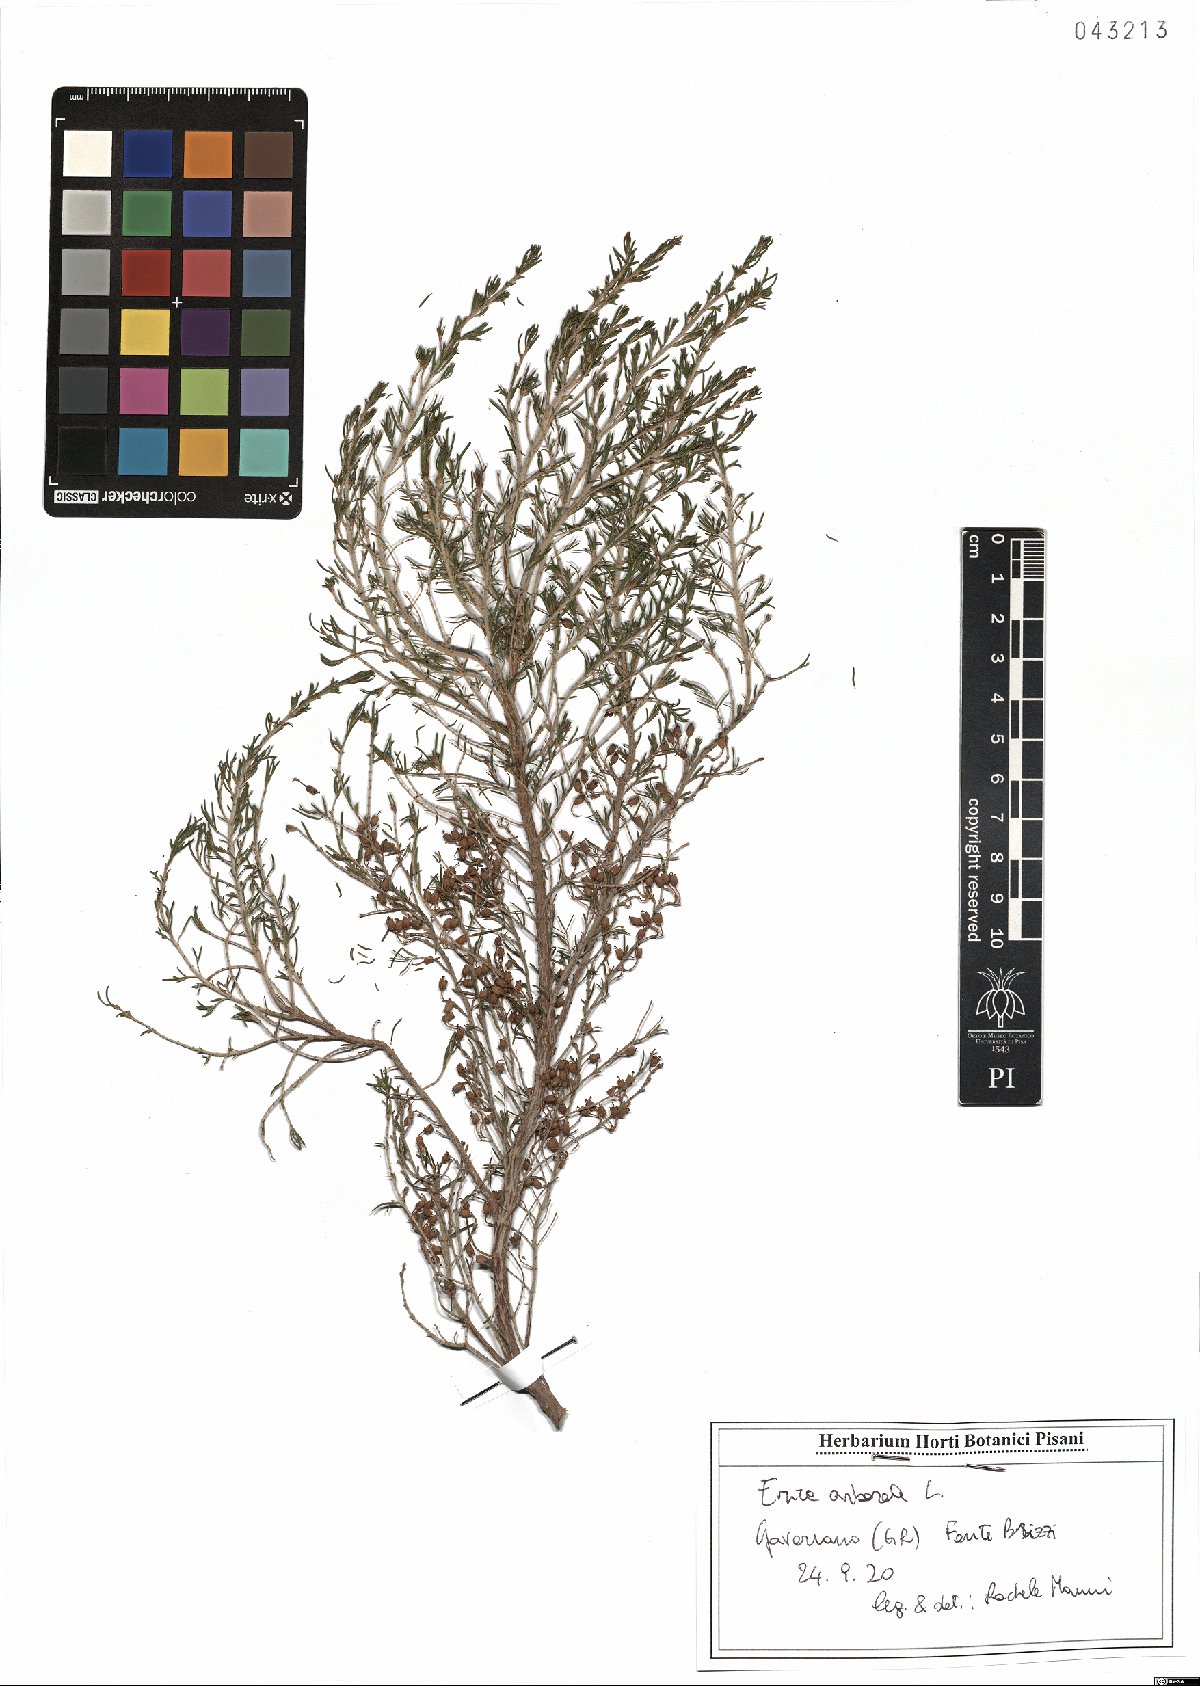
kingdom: Plantae
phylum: Tracheophyta
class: Magnoliopsida
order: Ericales
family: Ericaceae
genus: Erica
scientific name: Erica arborea
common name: Tree heath
